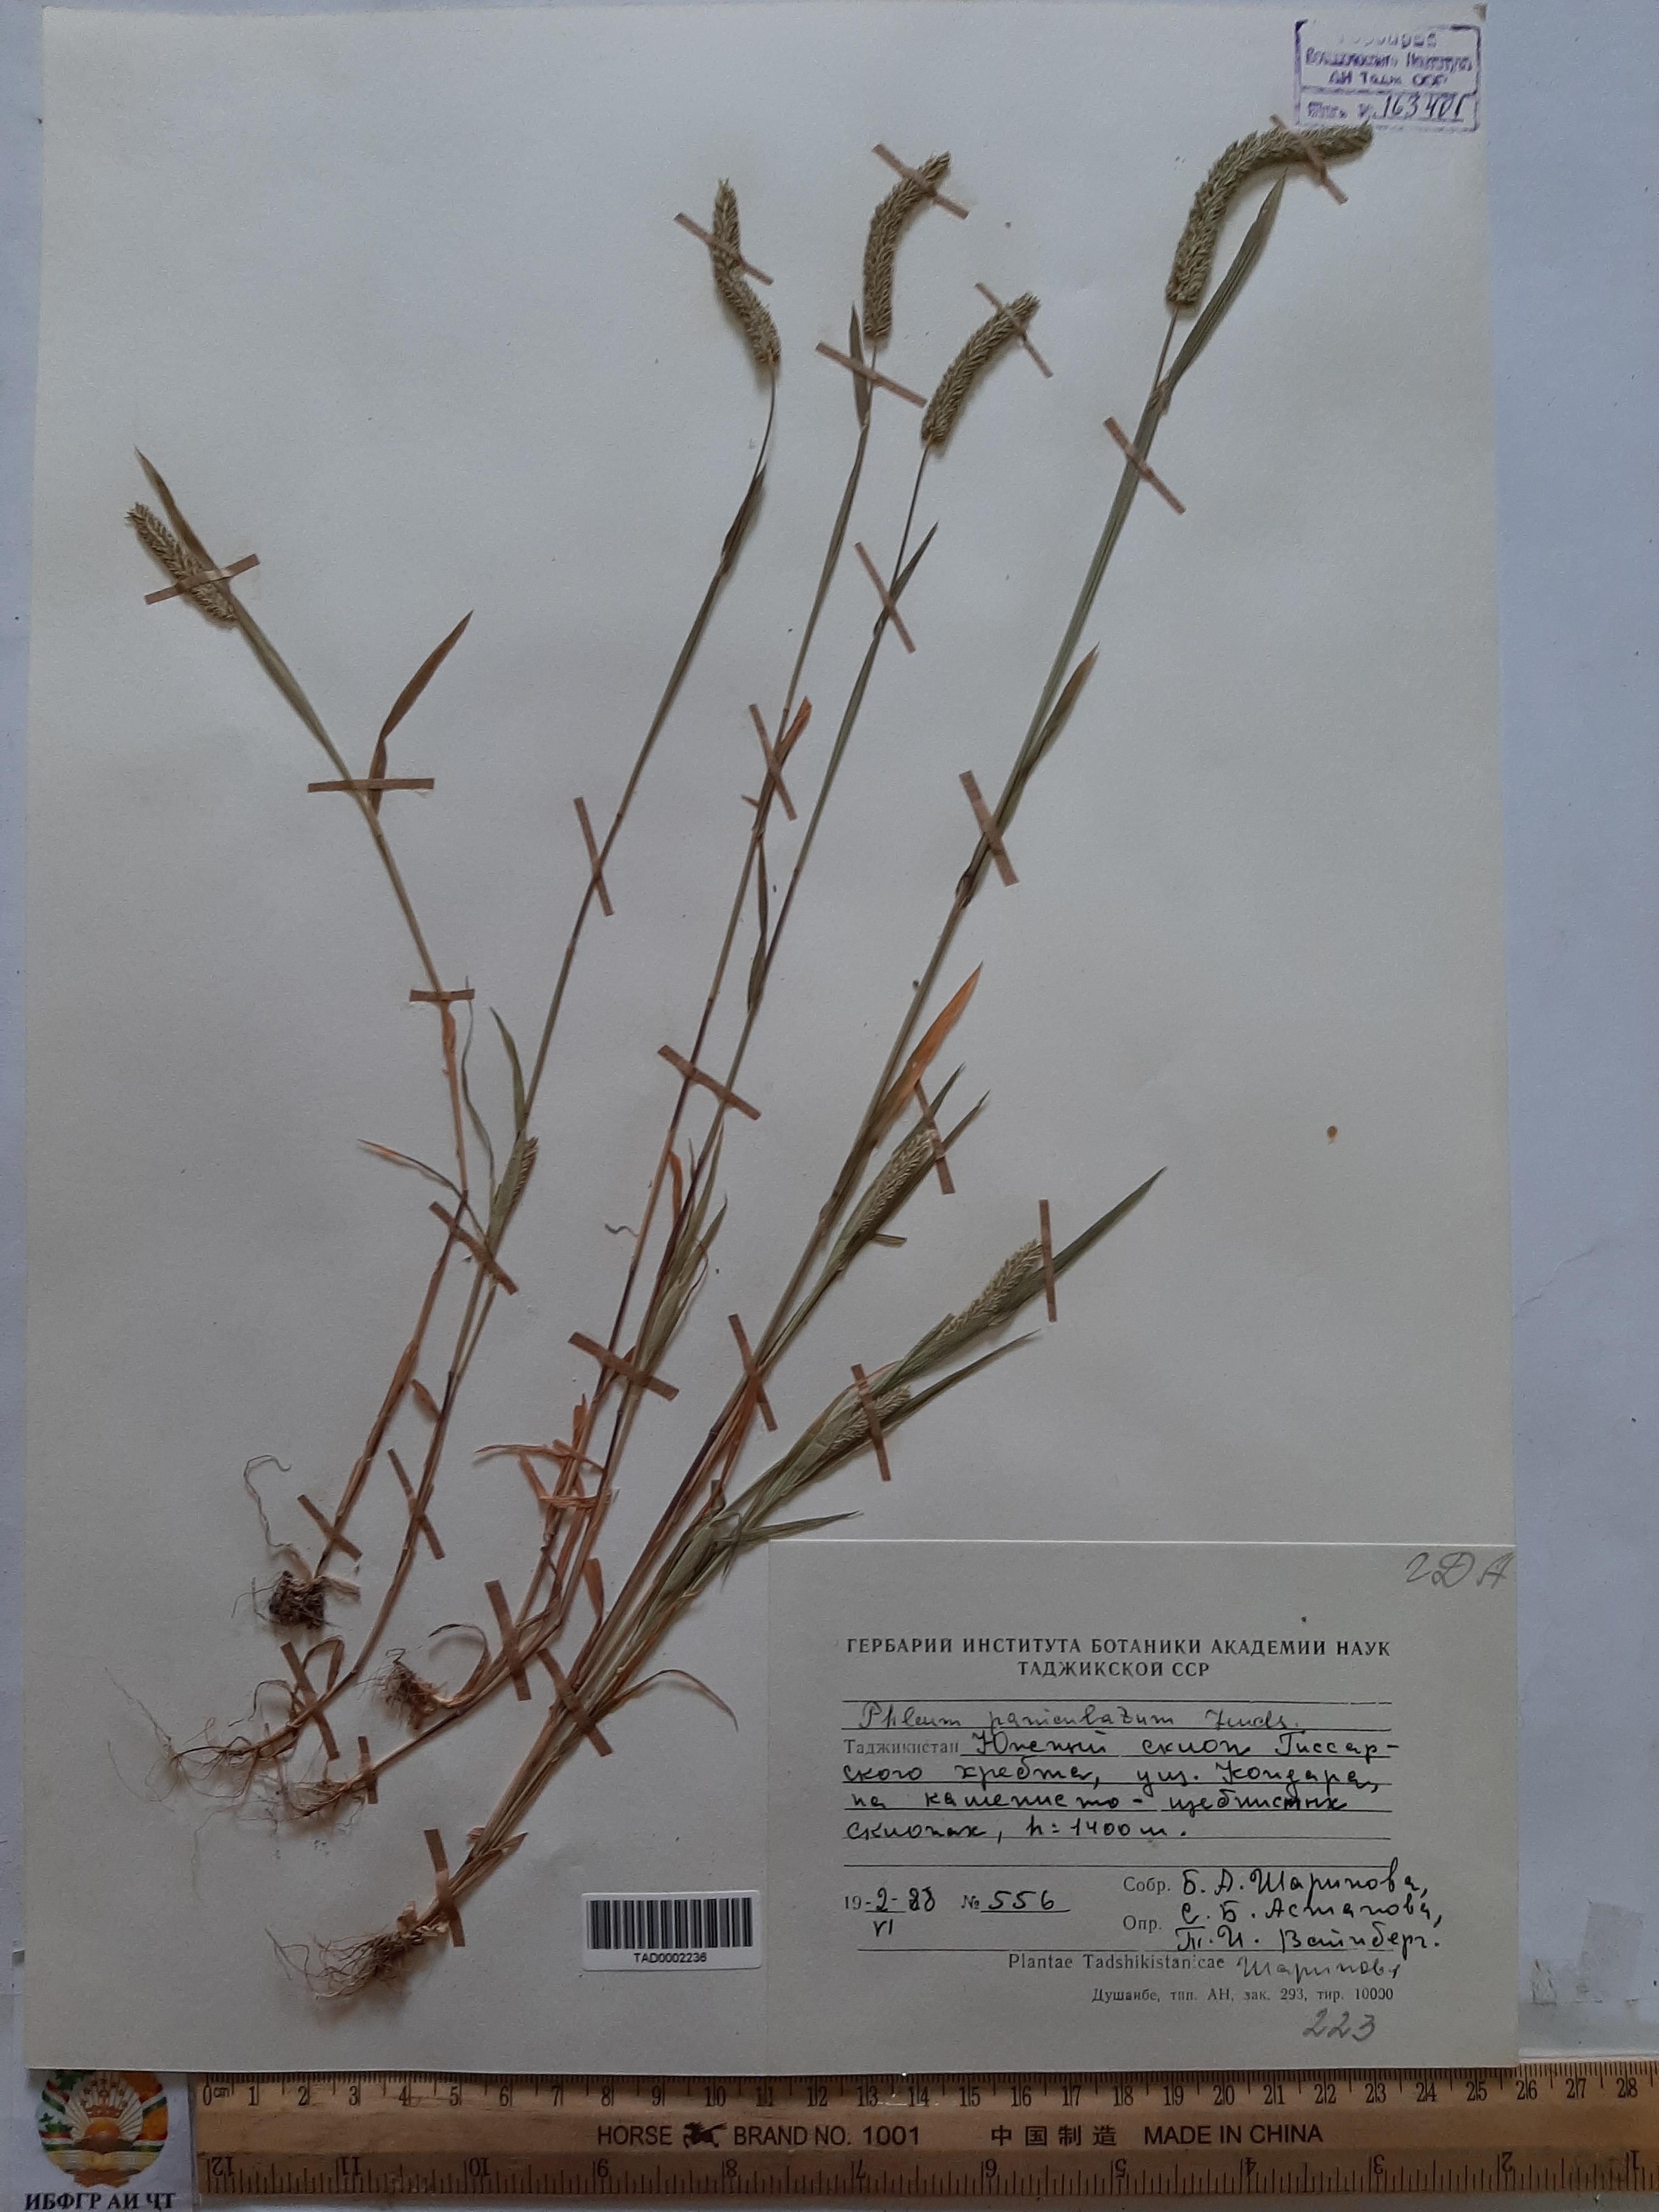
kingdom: Plantae
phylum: Tracheophyta
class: Liliopsida
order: Poales
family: Poaceae
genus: Phleum
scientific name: Phleum paniculatum
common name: British timothy
